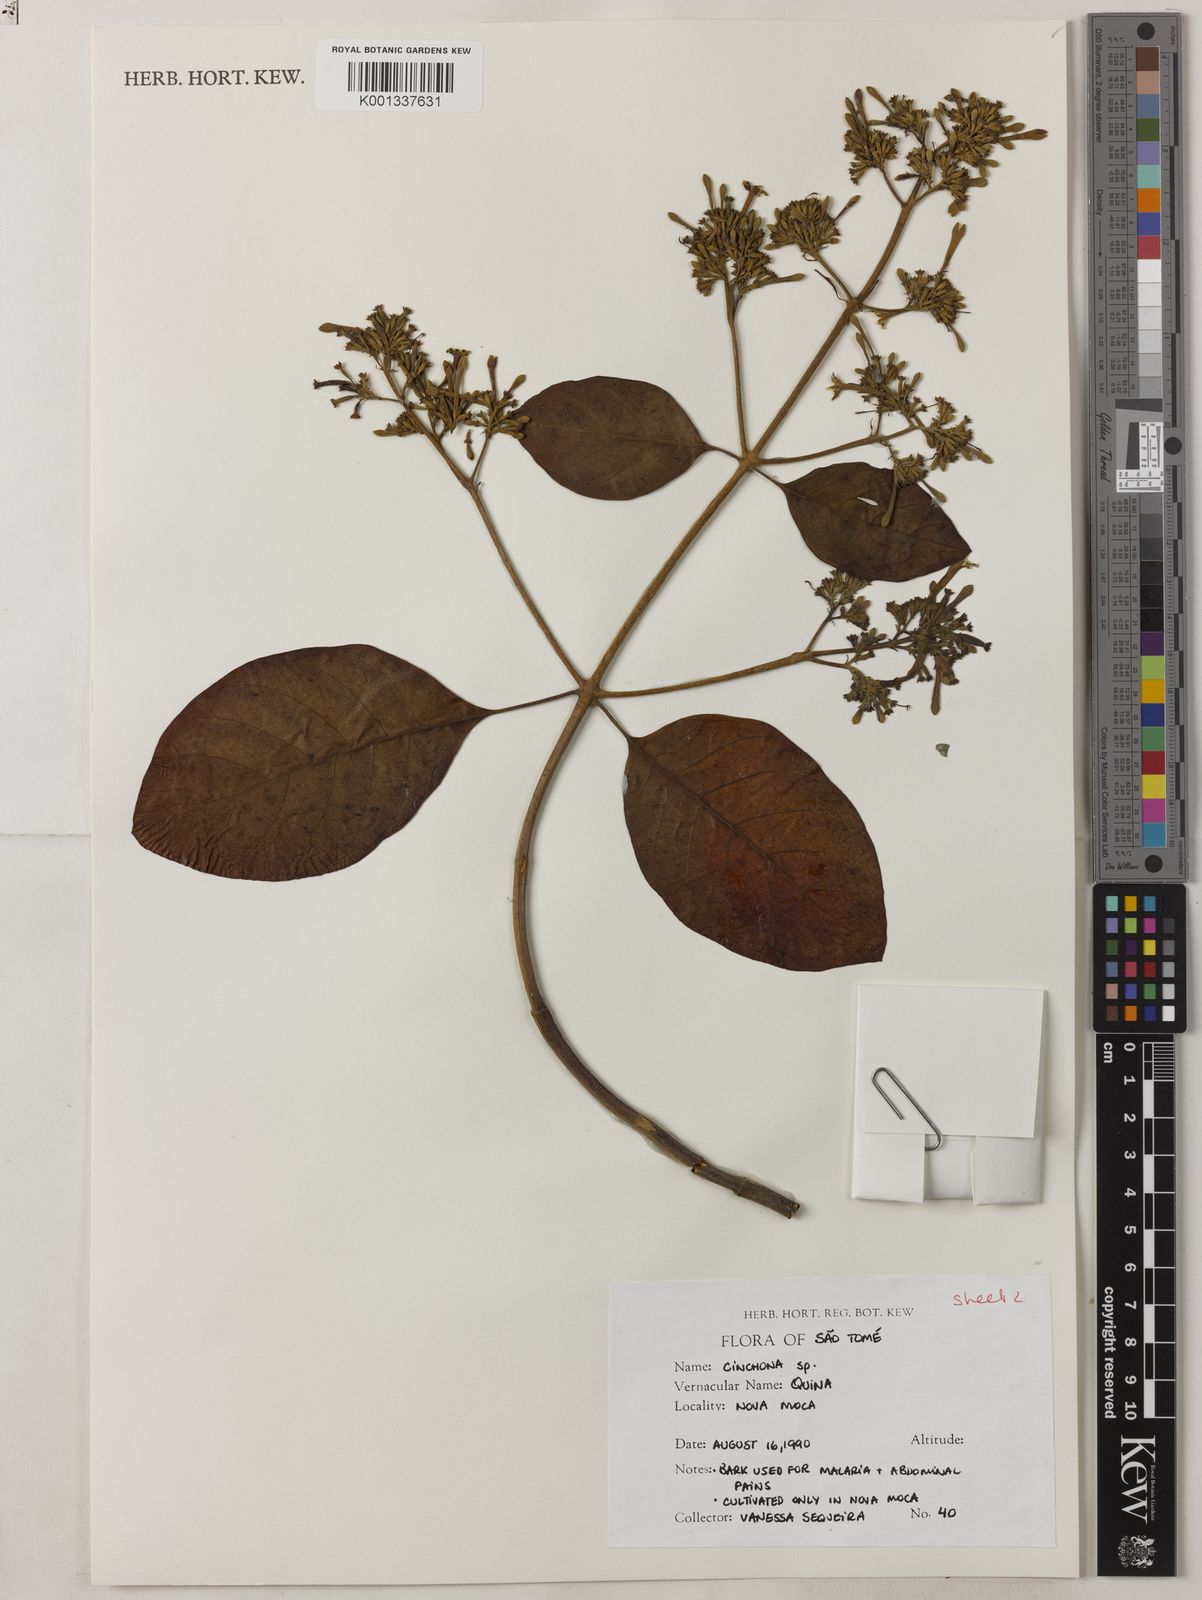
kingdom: Plantae
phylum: Tracheophyta
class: Magnoliopsida
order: Gentianales
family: Rubiaceae
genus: Cinchona
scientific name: Cinchona pubescens
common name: Quinine
